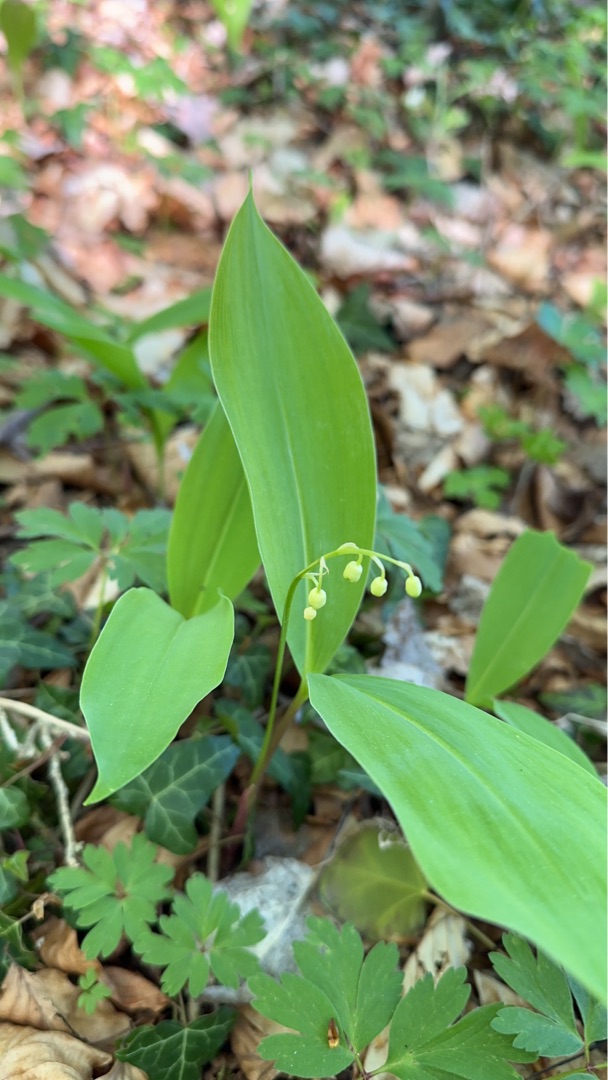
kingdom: Plantae
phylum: Tracheophyta
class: Liliopsida
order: Asparagales
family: Asparagaceae
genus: Convallaria
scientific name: Convallaria majalis
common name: Liljekonval
